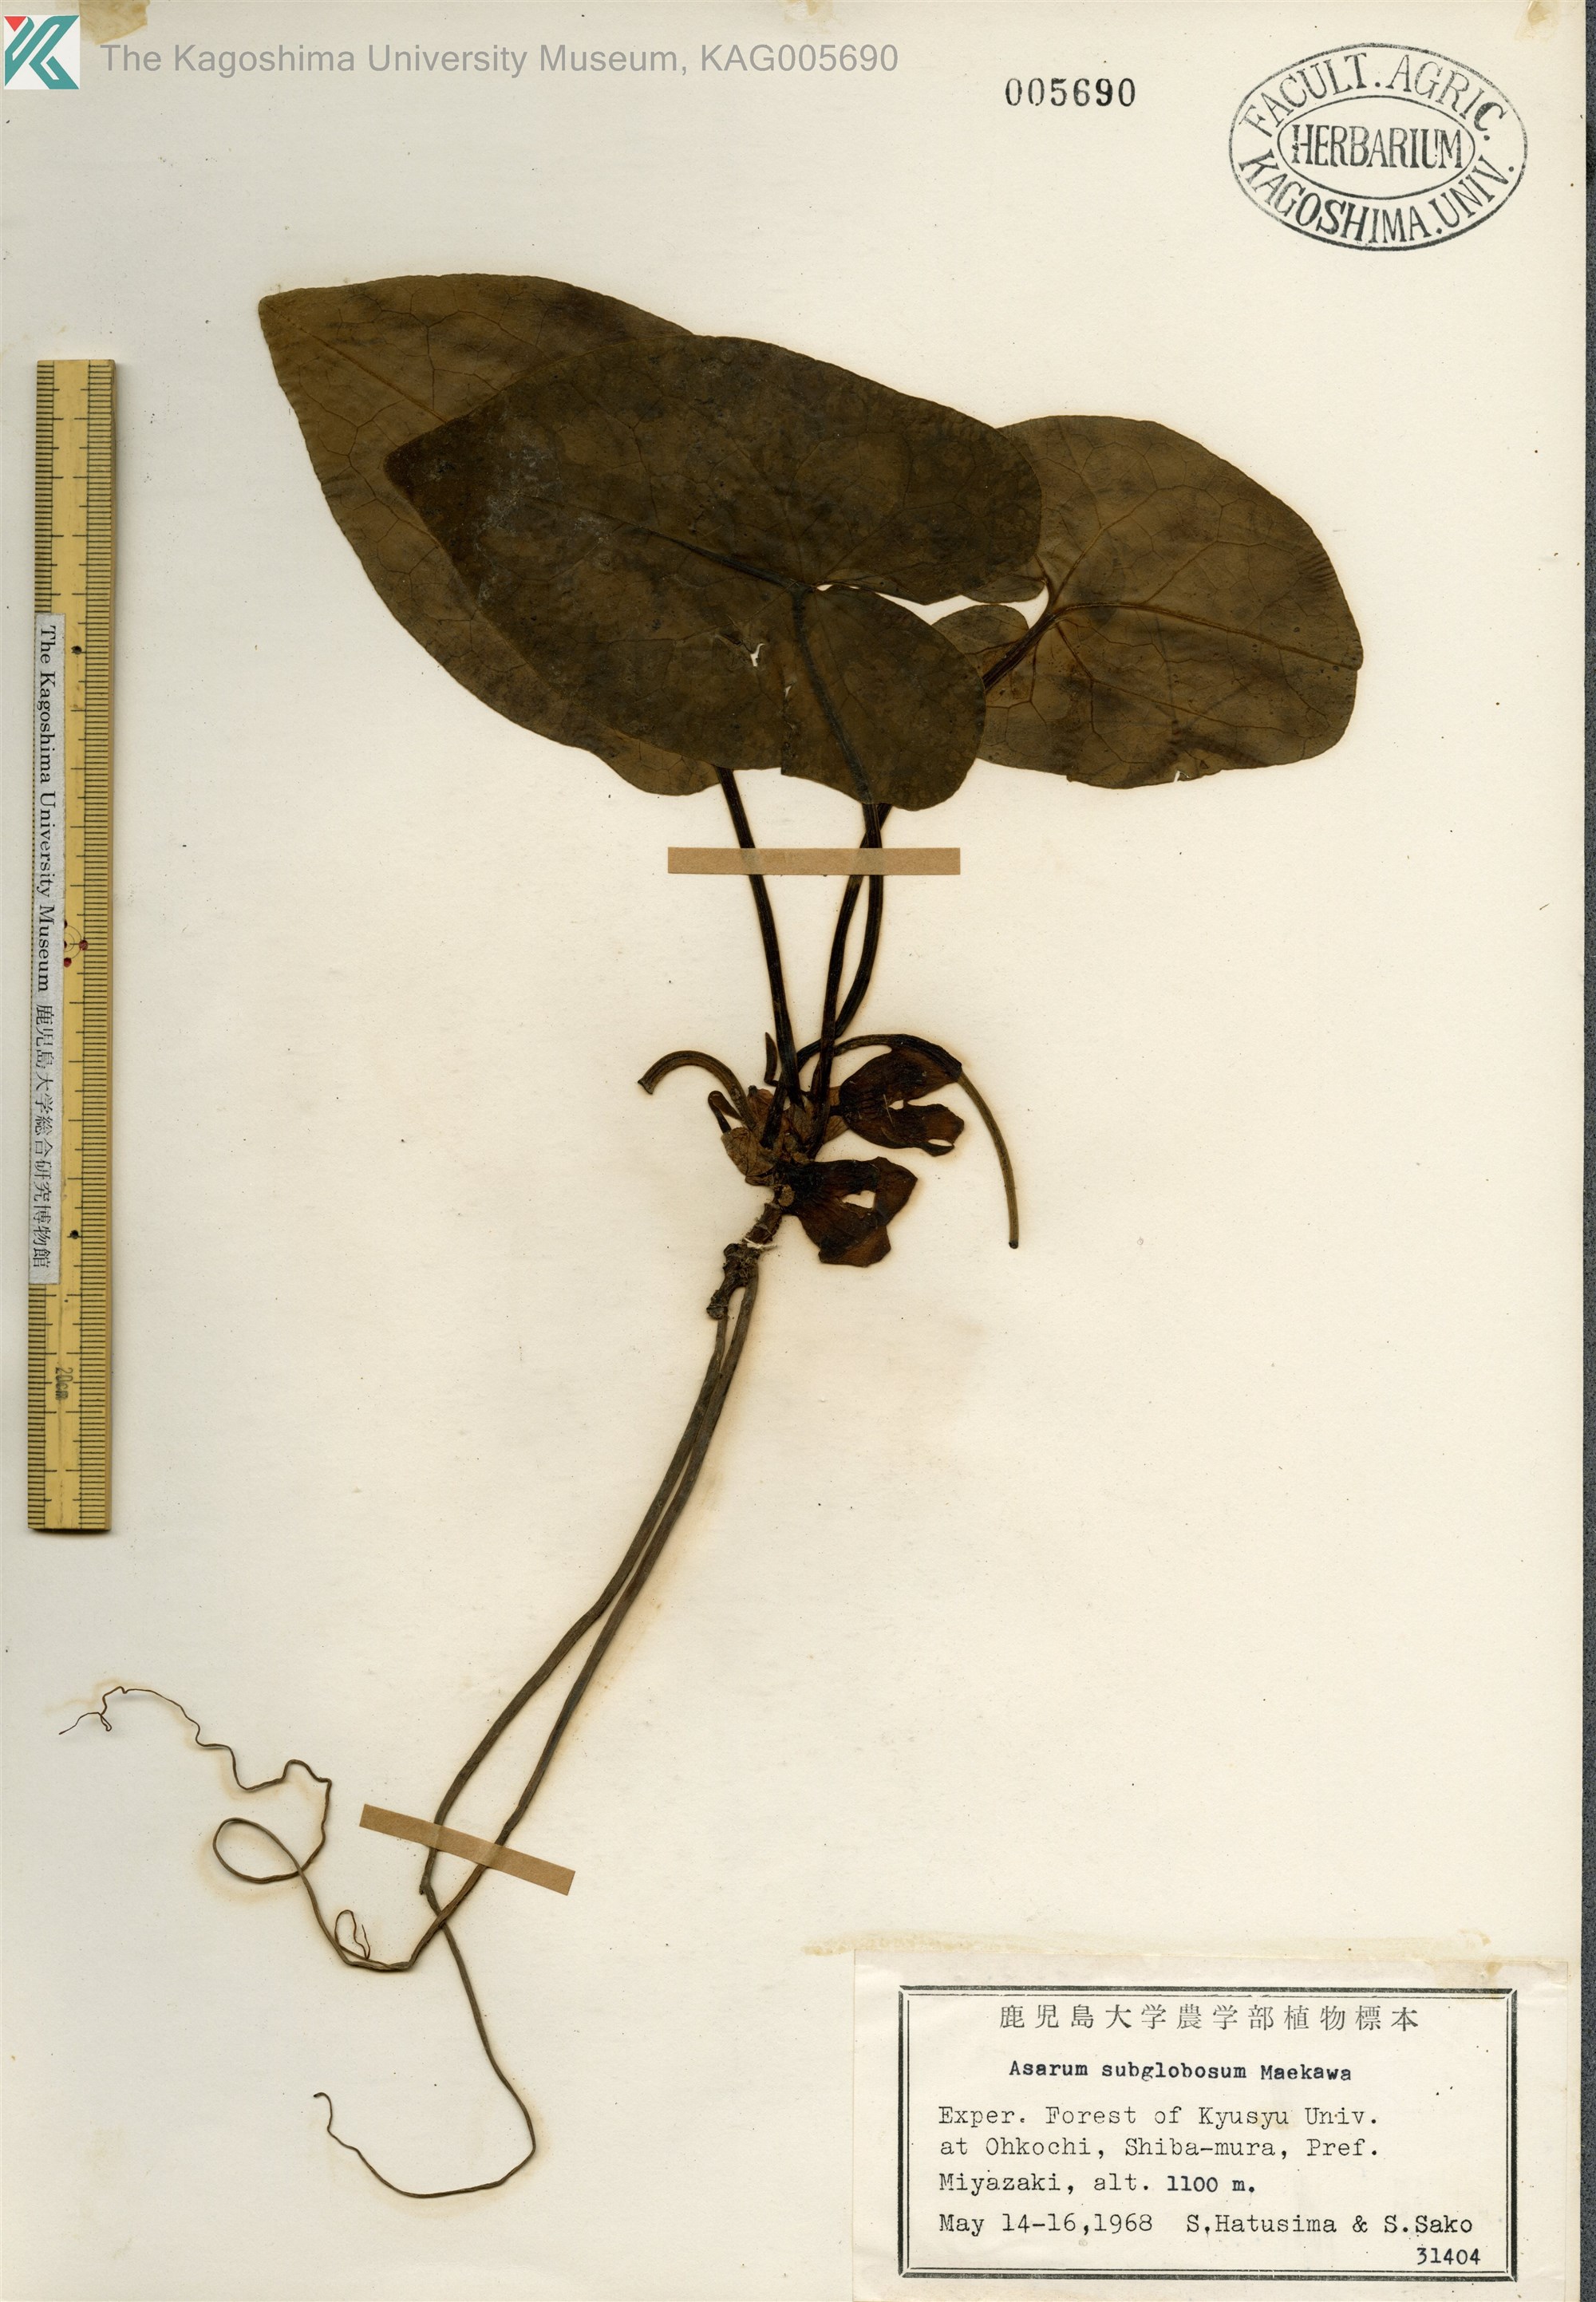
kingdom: Plantae
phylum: Tracheophyta
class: Magnoliopsida
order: Piperales
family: Aristolochiaceae
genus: Asarum
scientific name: Asarum subglobosum
